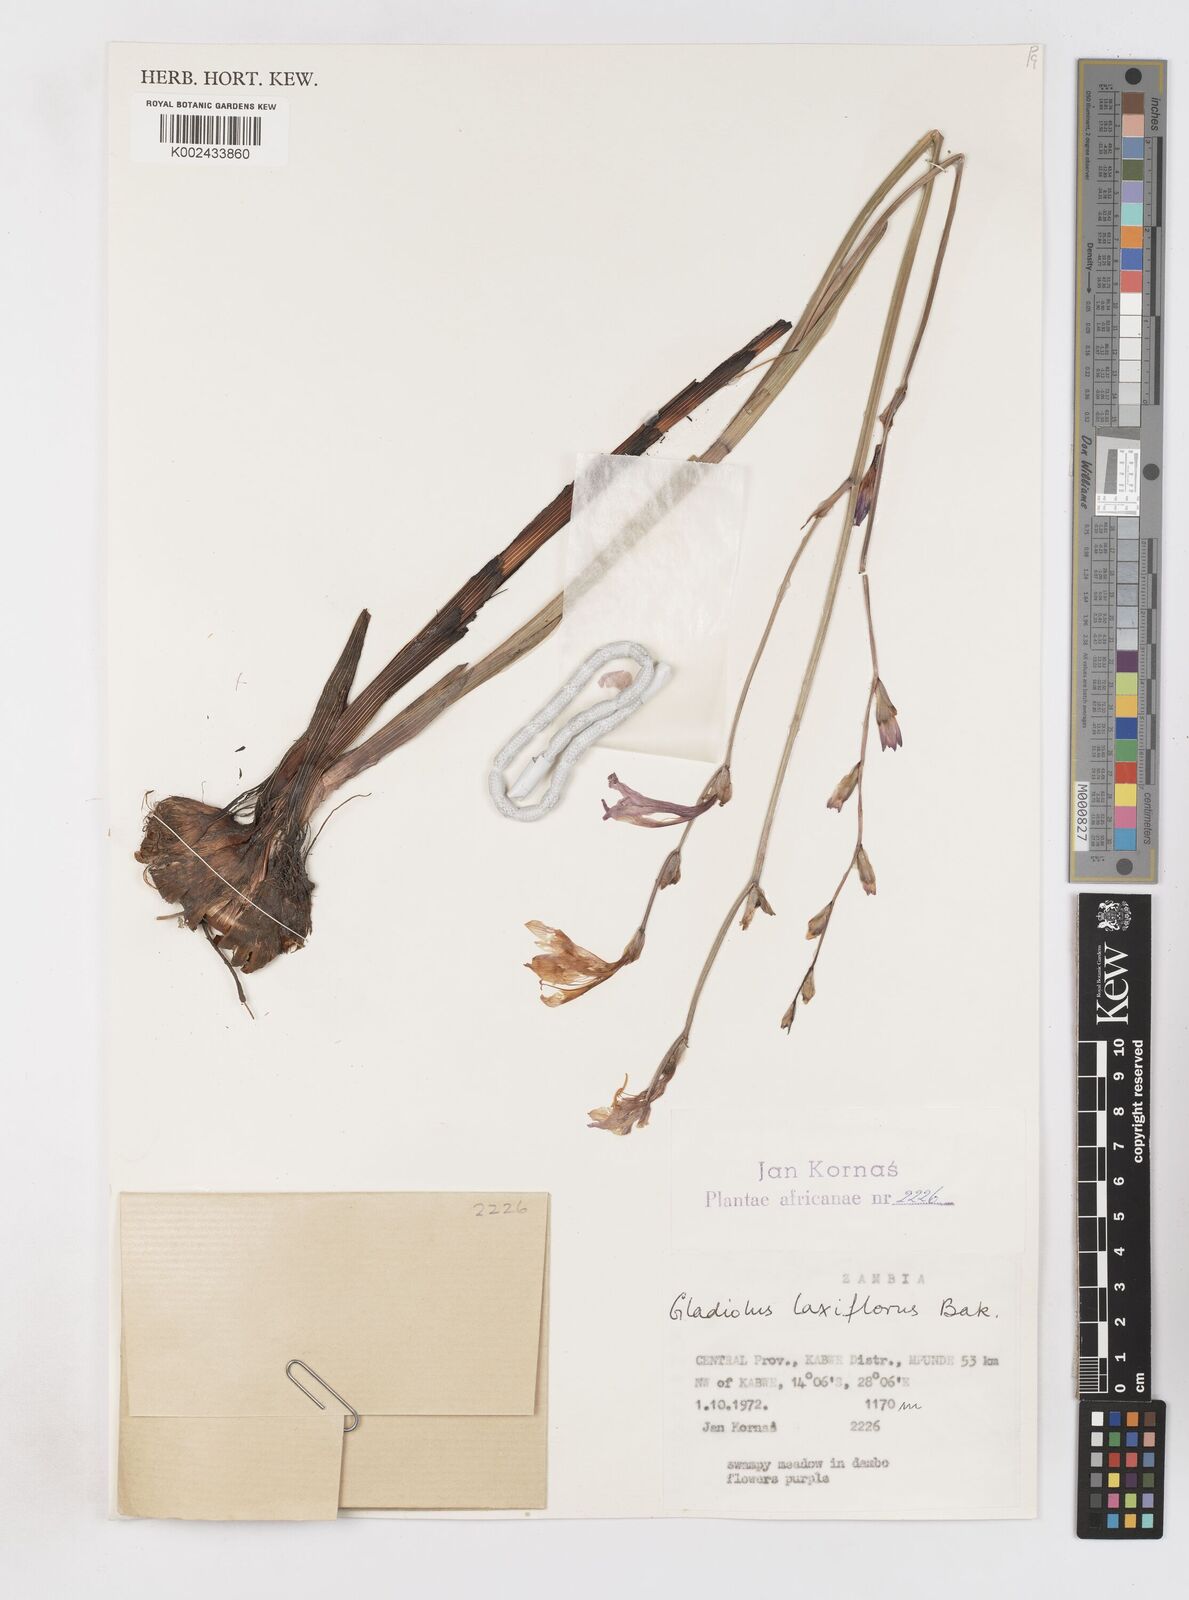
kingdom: Plantae
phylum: Tracheophyta
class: Liliopsida
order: Asparagales
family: Iridaceae
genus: Gladiolus
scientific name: Gladiolus laxiflorus
